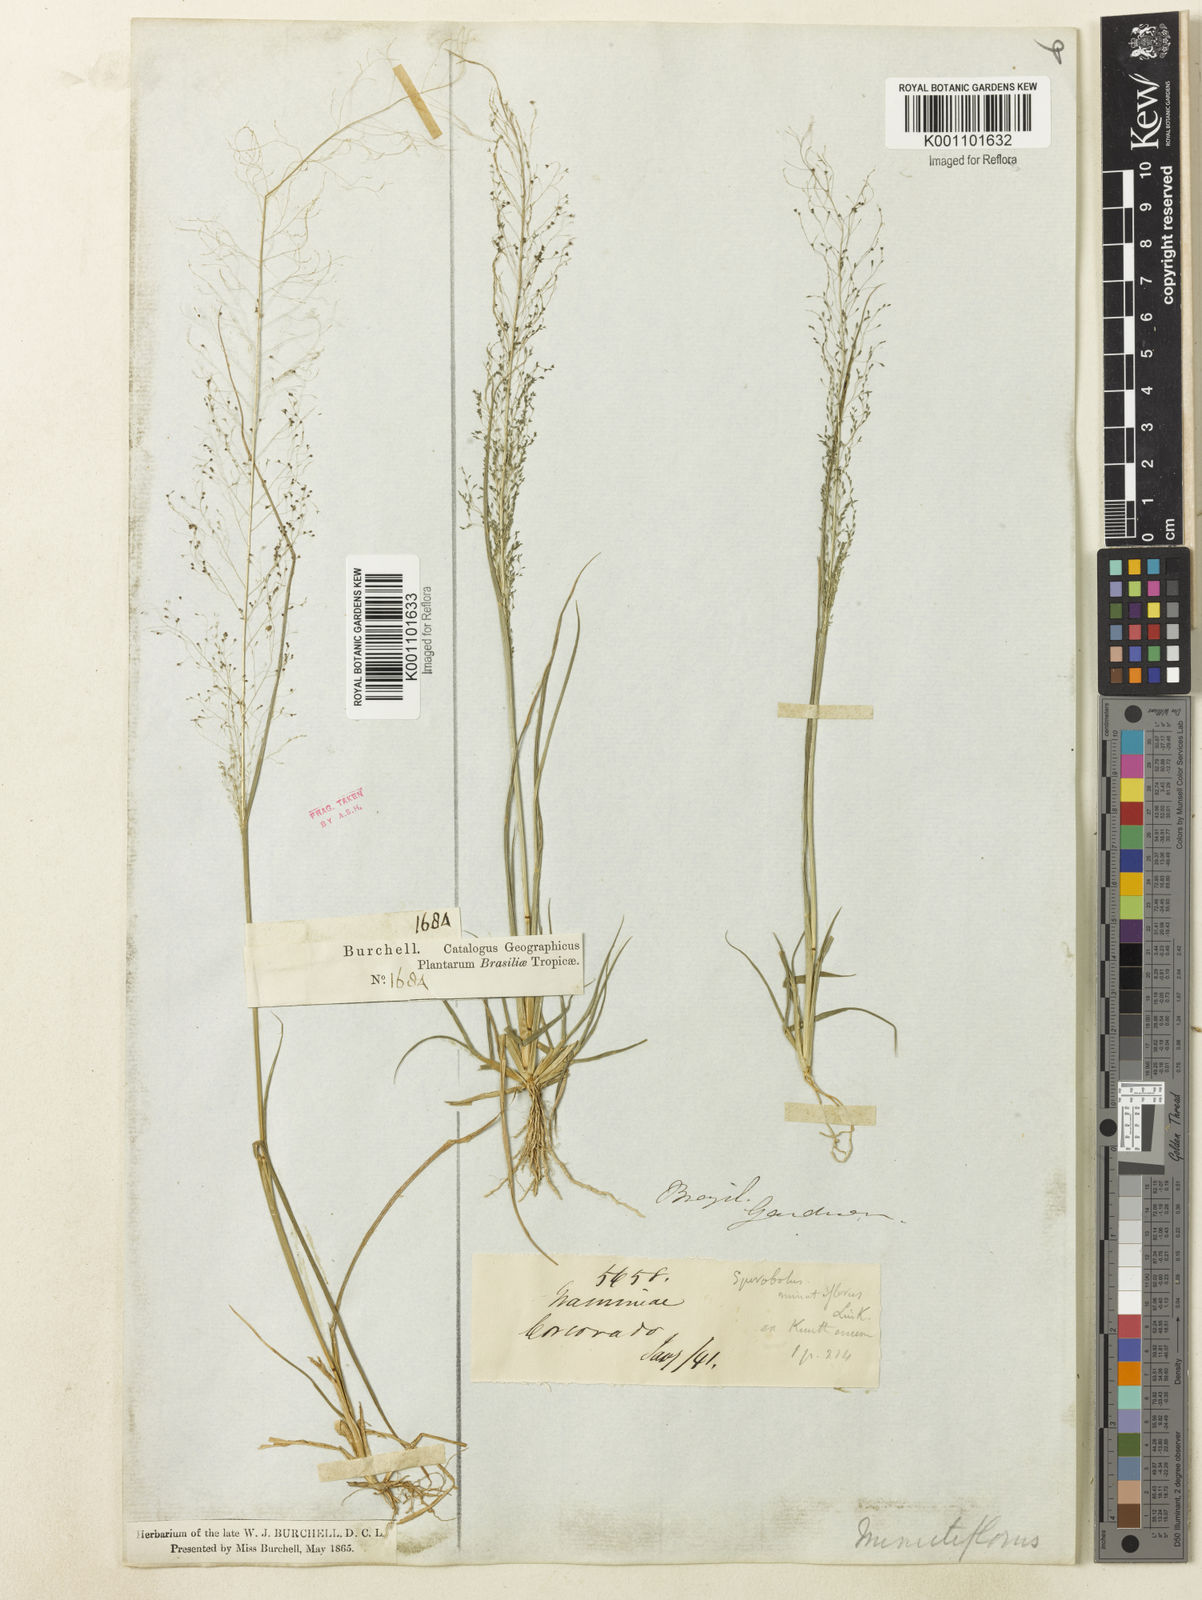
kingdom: Plantae
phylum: Tracheophyta
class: Liliopsida
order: Poales
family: Poaceae
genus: Sporobolus
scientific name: Sporobolus tenuissimus
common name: Tropical dropseed
